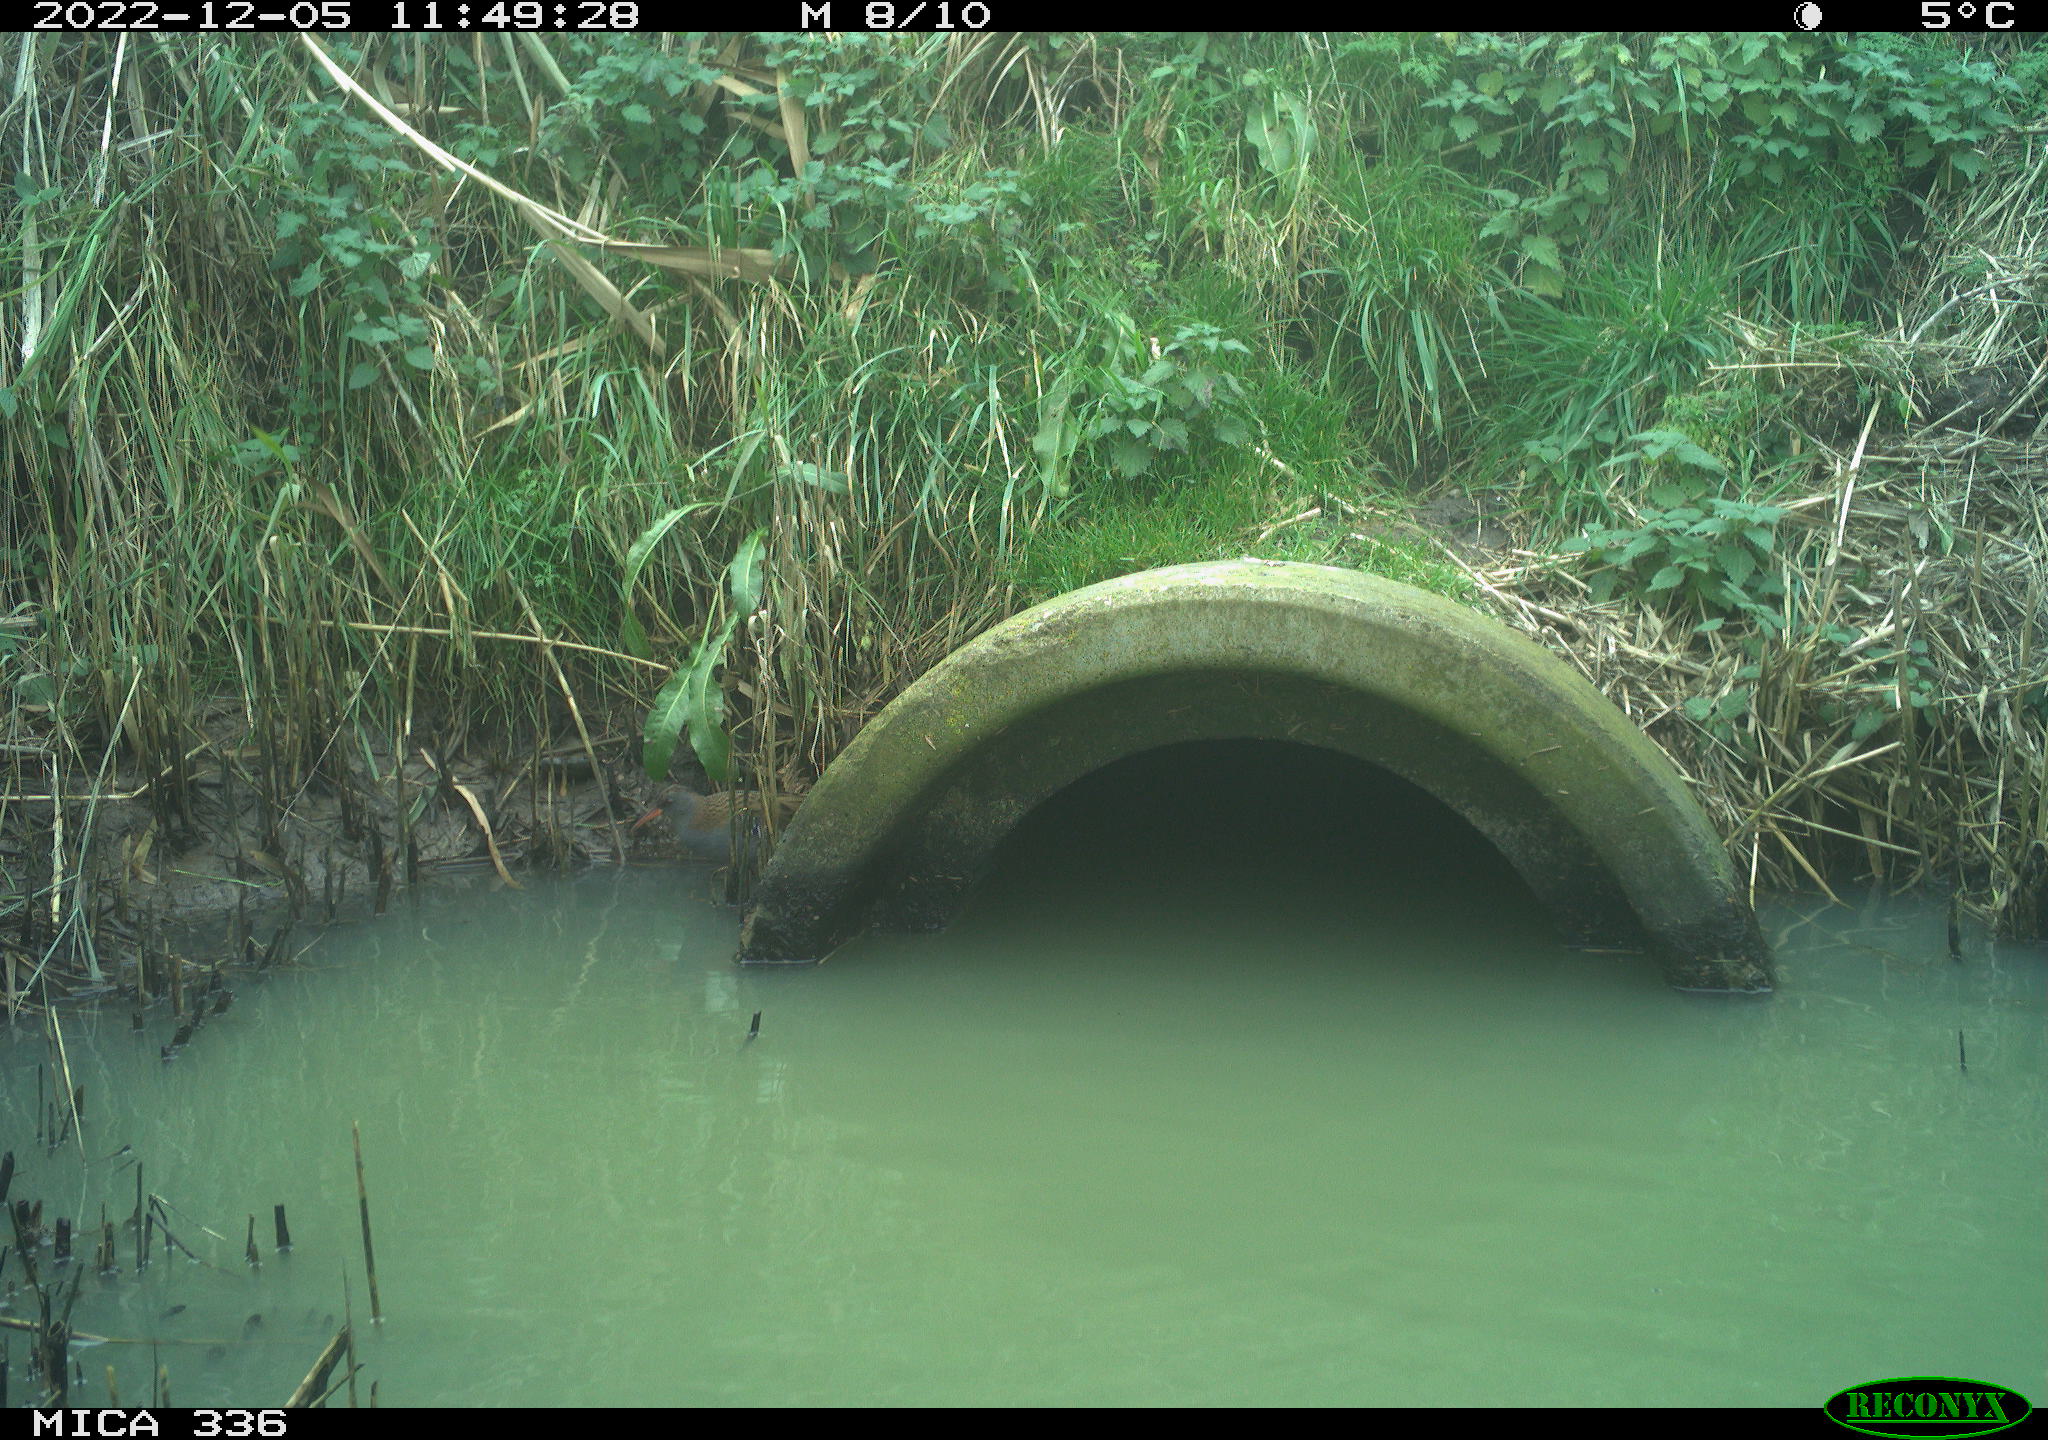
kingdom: Animalia
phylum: Chordata
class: Aves
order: Gruiformes
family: Rallidae
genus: Rallus
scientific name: Rallus aquaticus
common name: Water rail
